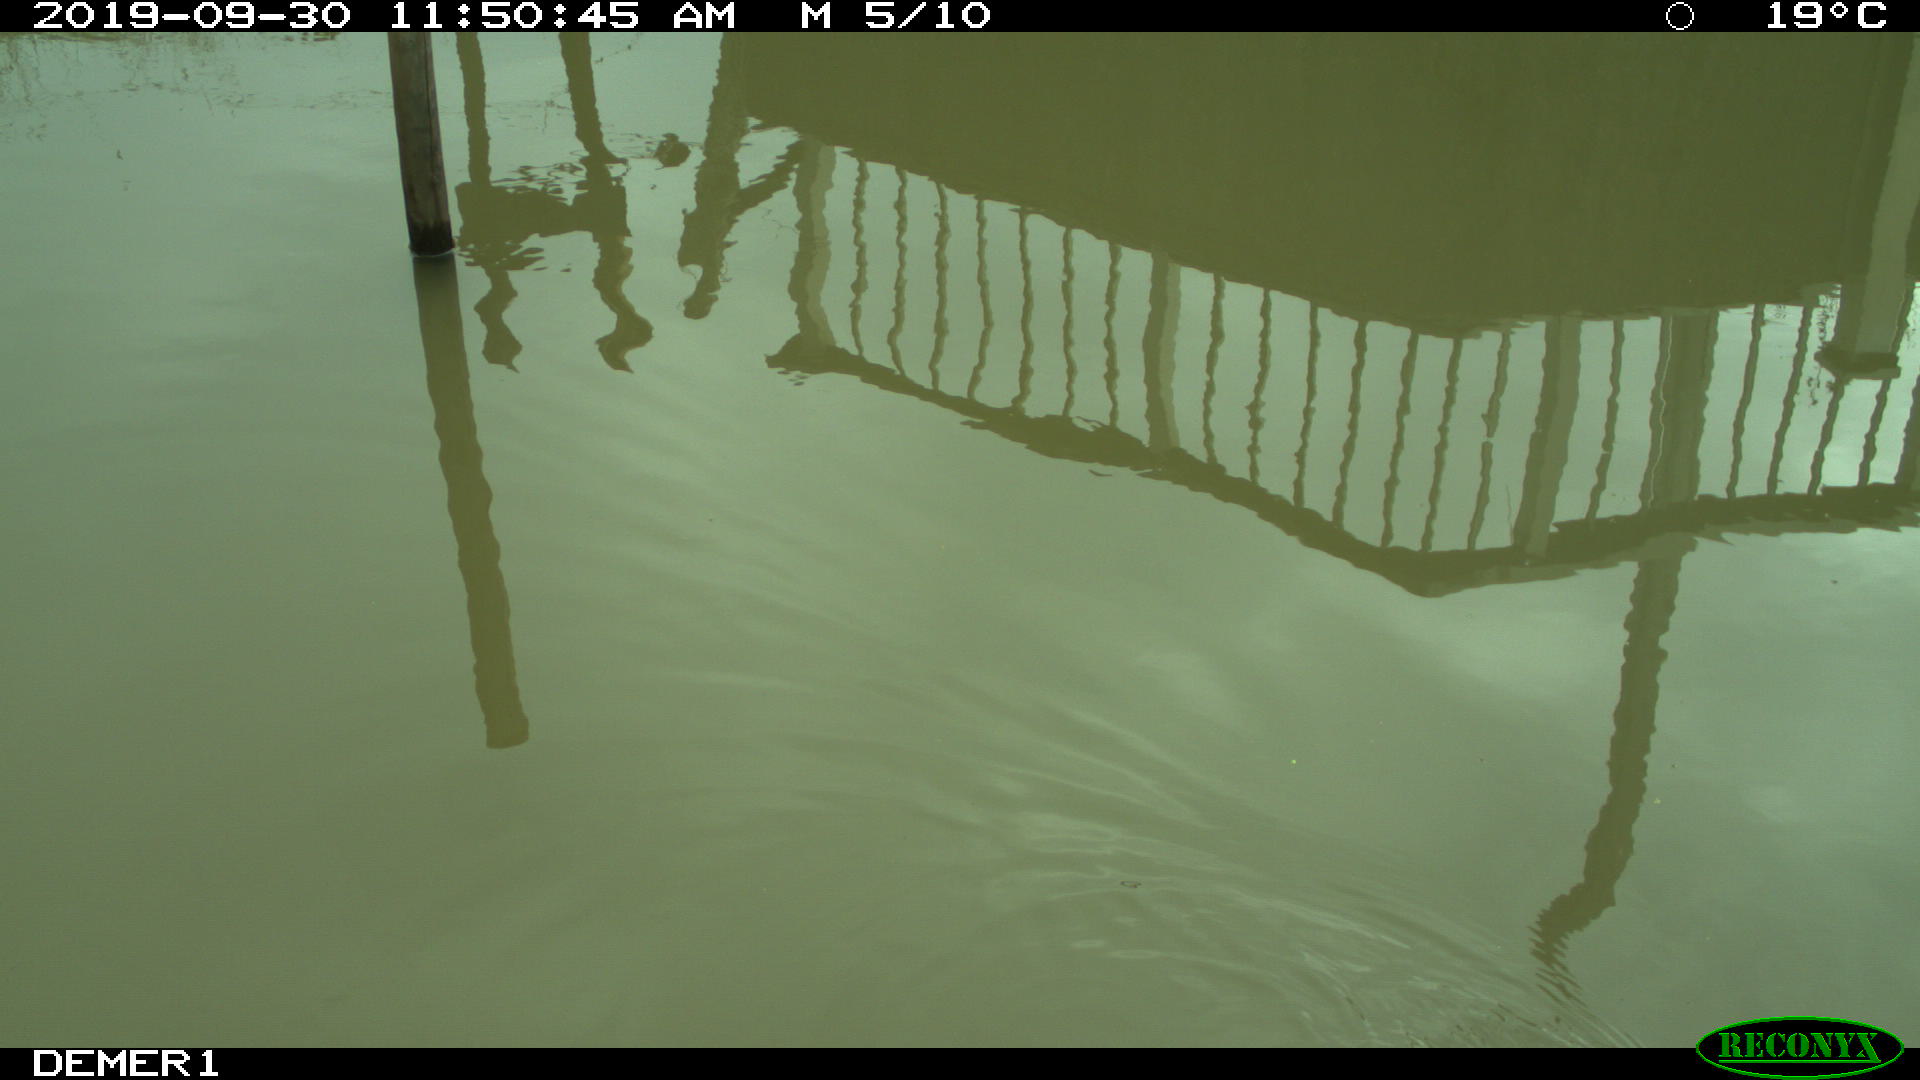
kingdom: Animalia
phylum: Chordata
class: Aves
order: Gruiformes
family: Rallidae
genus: Gallinula
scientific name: Gallinula chloropus
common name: Common moorhen
